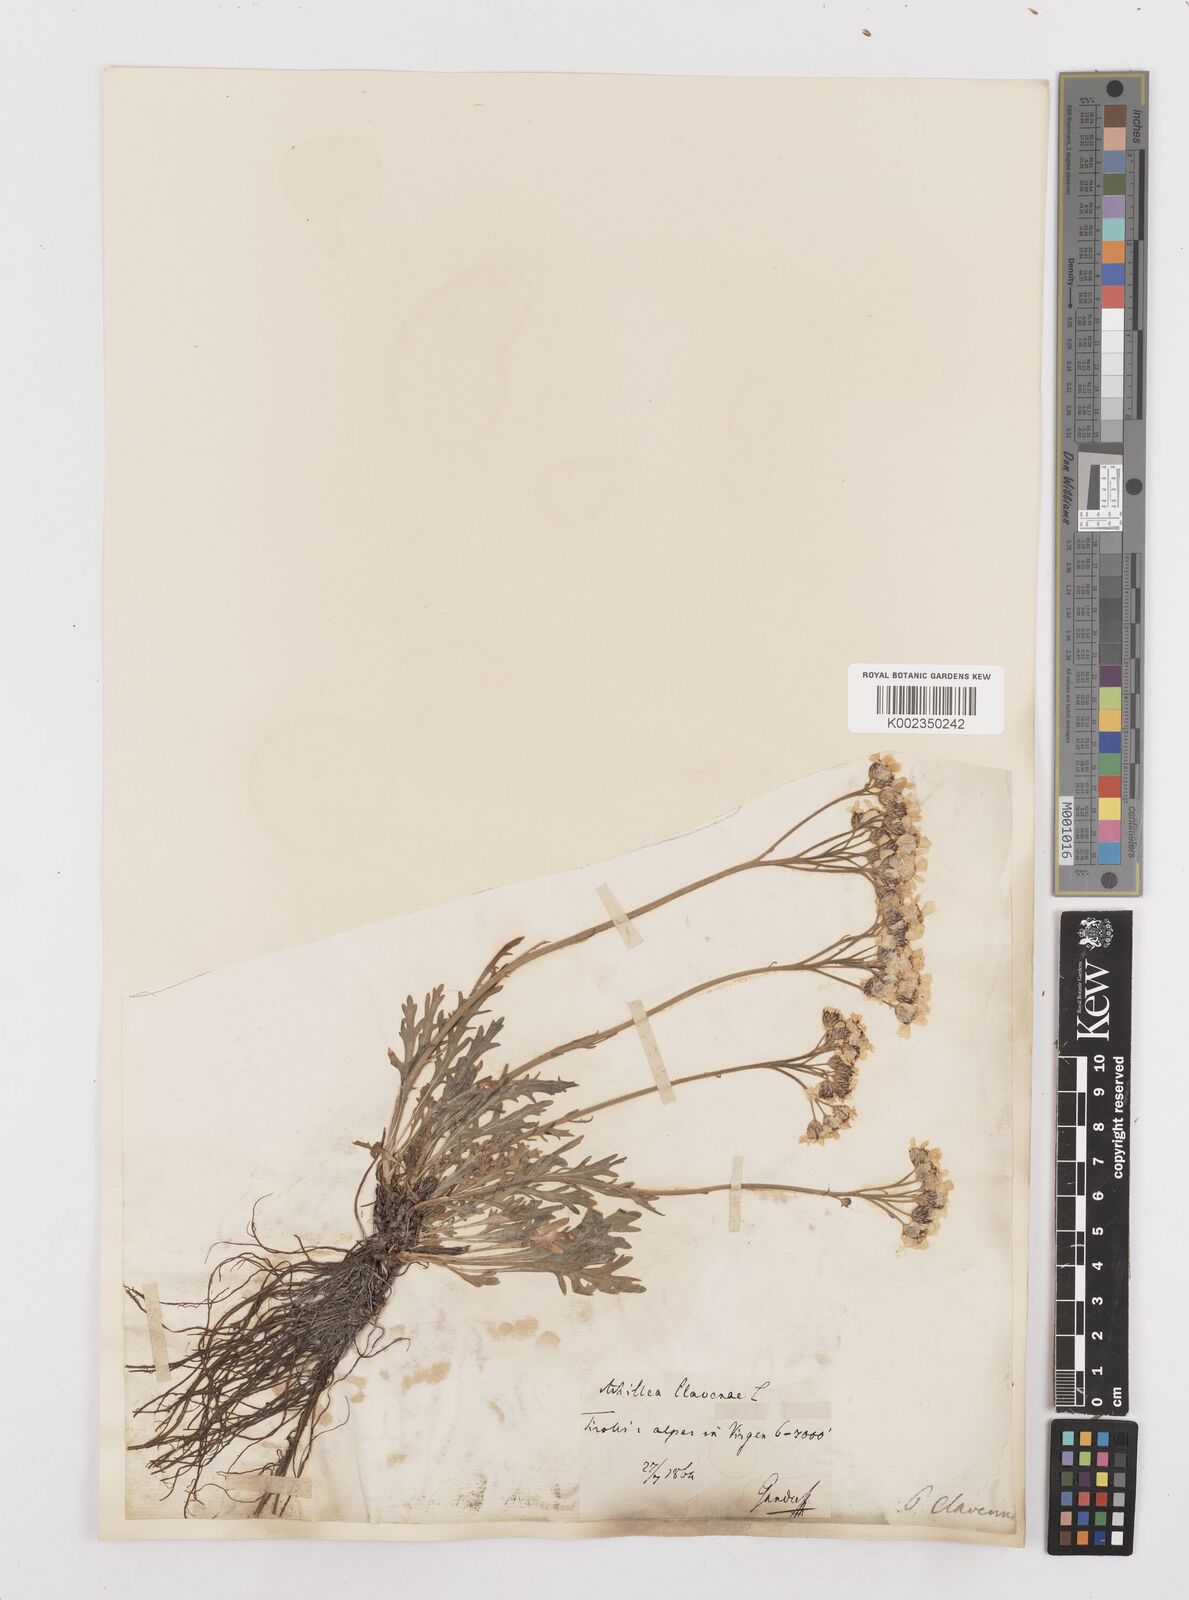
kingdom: Plantae
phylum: Tracheophyta
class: Magnoliopsida
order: Asterales
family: Asteraceae
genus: Achillea
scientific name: Achillea clavennae
